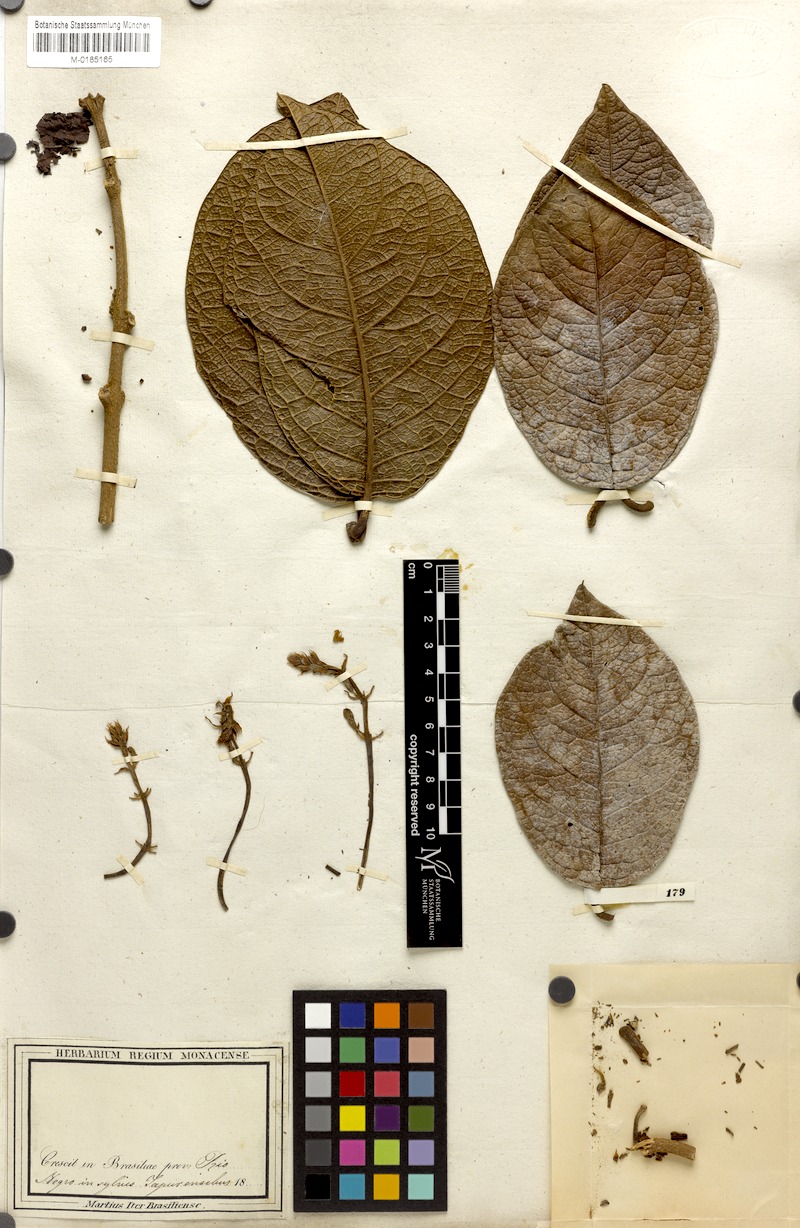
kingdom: Plantae
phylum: Tracheophyta
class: Magnoliopsida
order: Boraginales
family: Cordiaceae
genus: Cordia
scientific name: Cordia
